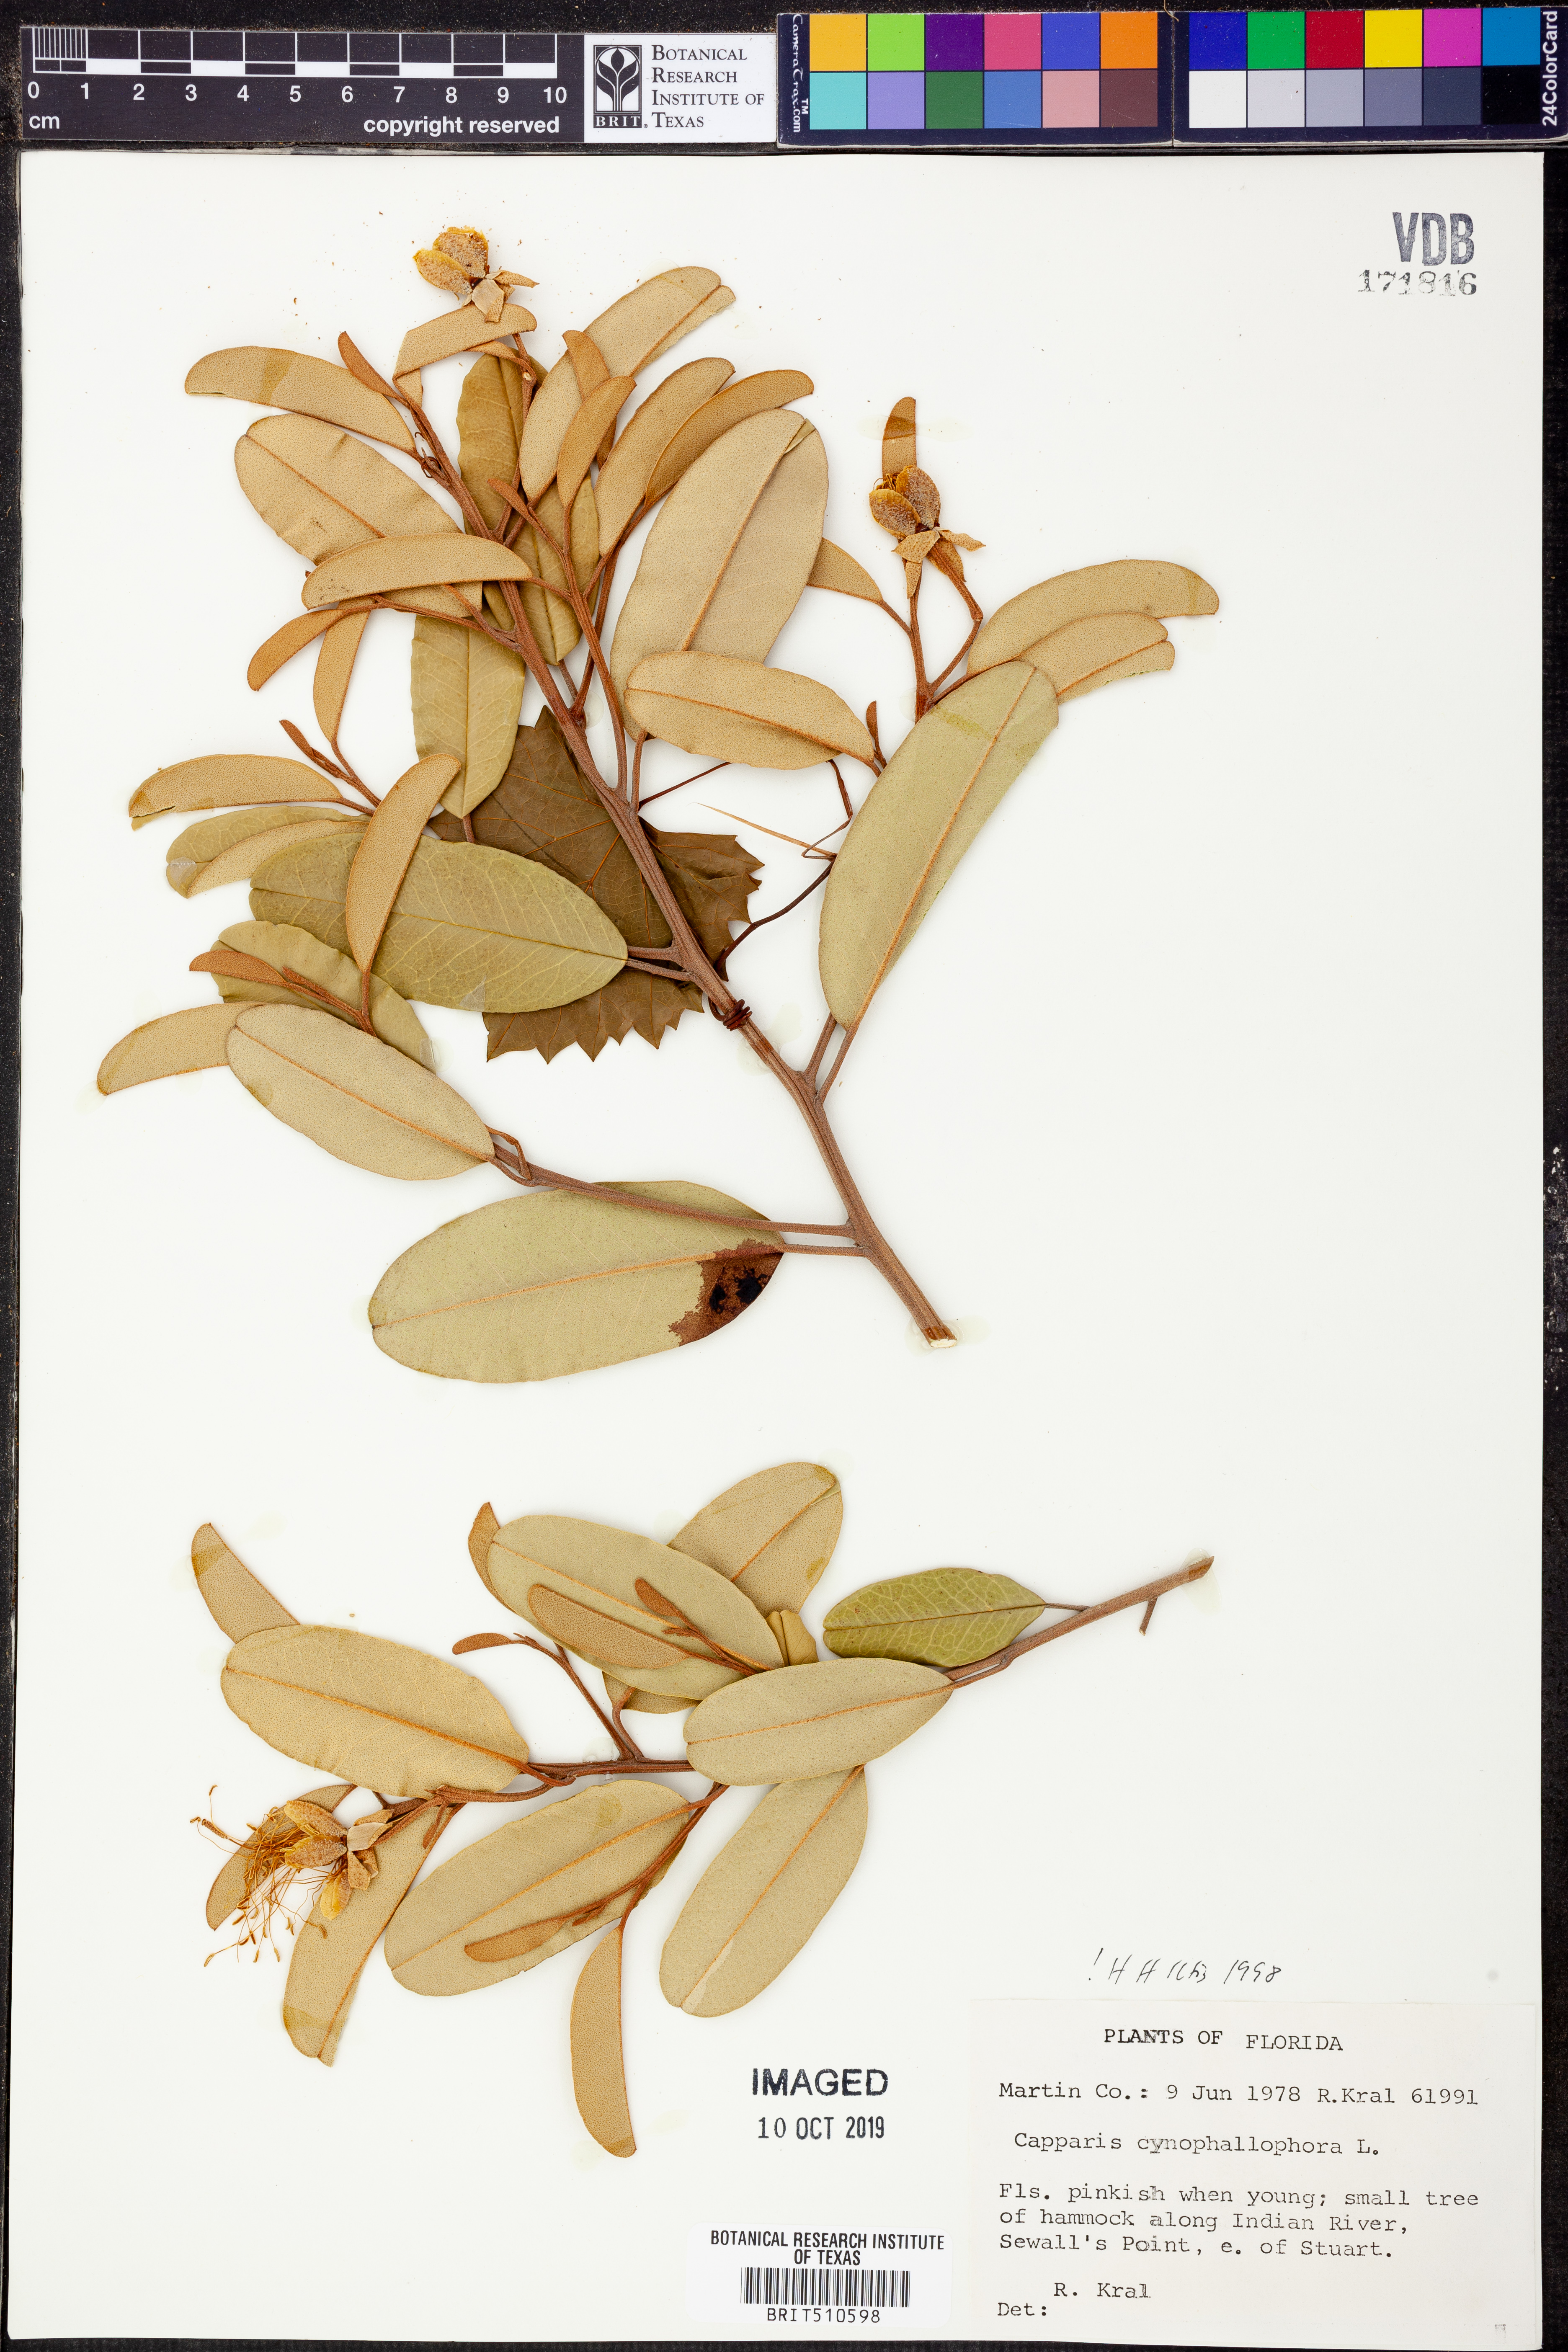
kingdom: Plantae
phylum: Tracheophyta
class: Magnoliopsida
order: Brassicales
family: Capparaceae
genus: Quadrella
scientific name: Quadrella cynophallophora
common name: Black willow
